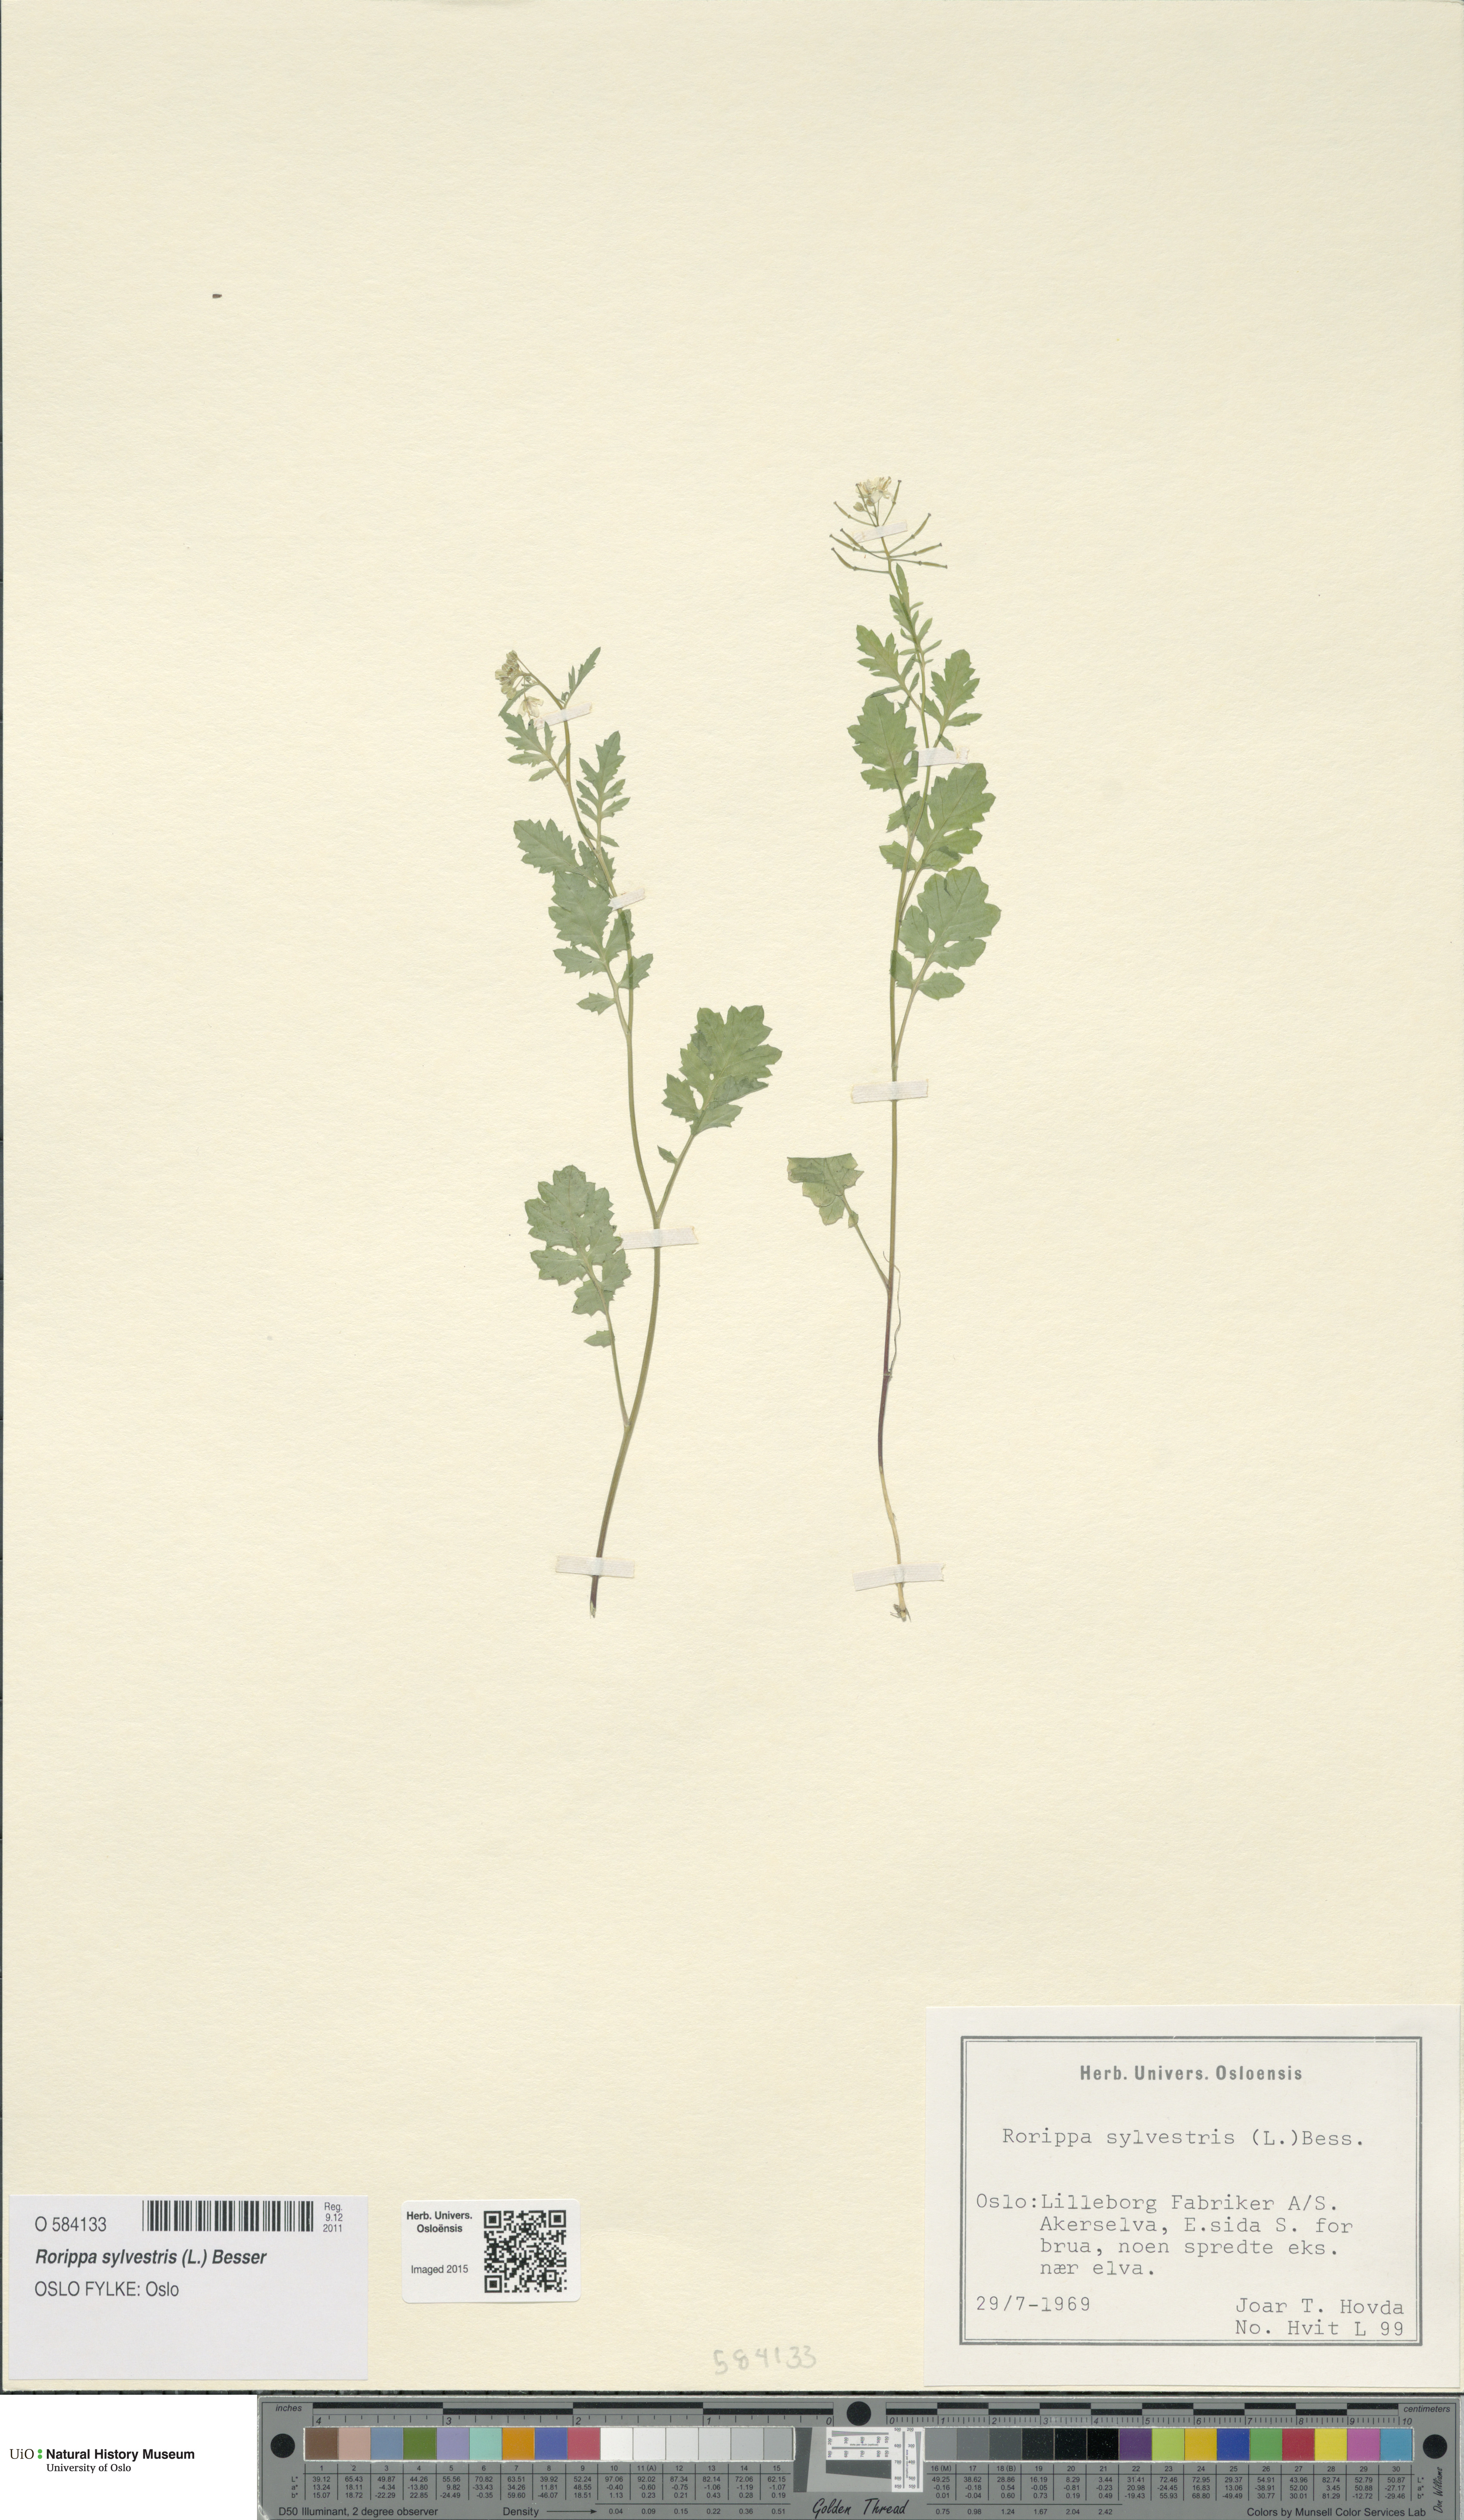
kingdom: Plantae
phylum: Tracheophyta
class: Magnoliopsida
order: Brassicales
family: Brassicaceae
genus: Rorippa
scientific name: Rorippa sylvestris
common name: Creeping yellowcress
